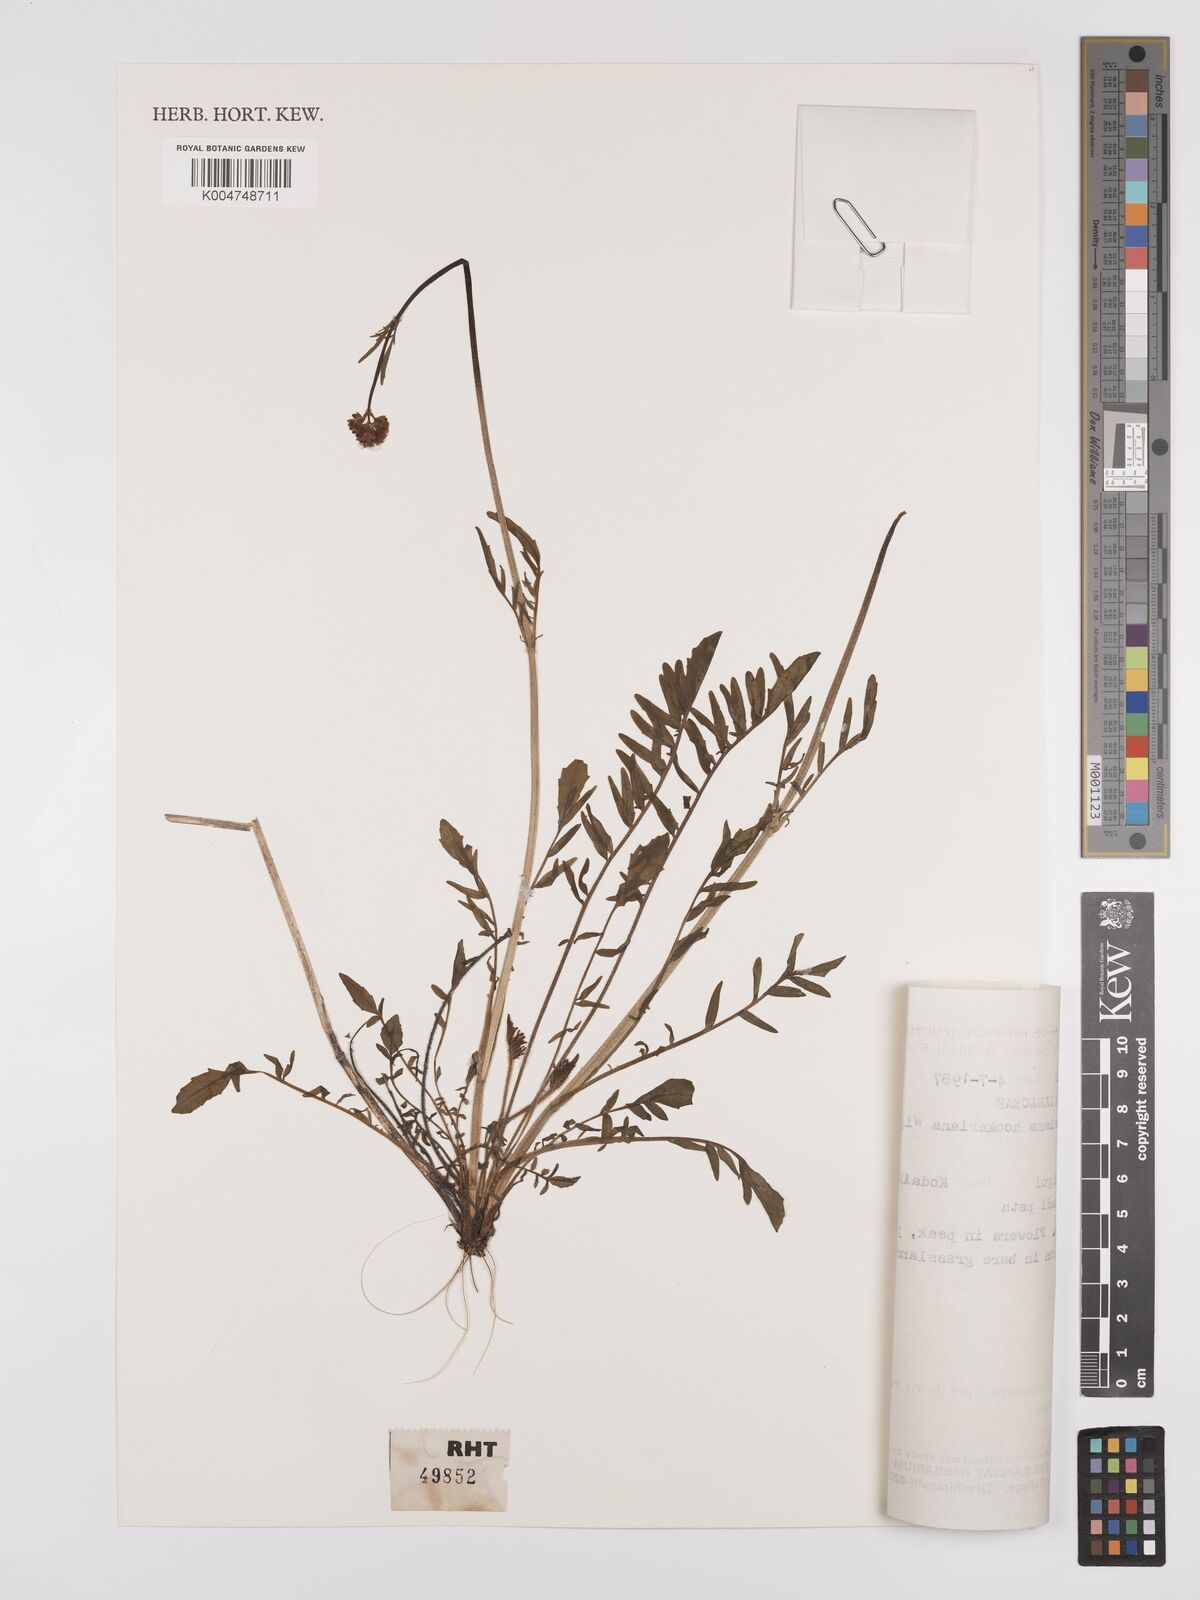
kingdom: Plantae
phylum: Tracheophyta
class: Magnoliopsida
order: Dipsacales
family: Caprifoliaceae
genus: Valeriana
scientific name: Valeriana hardwickei
